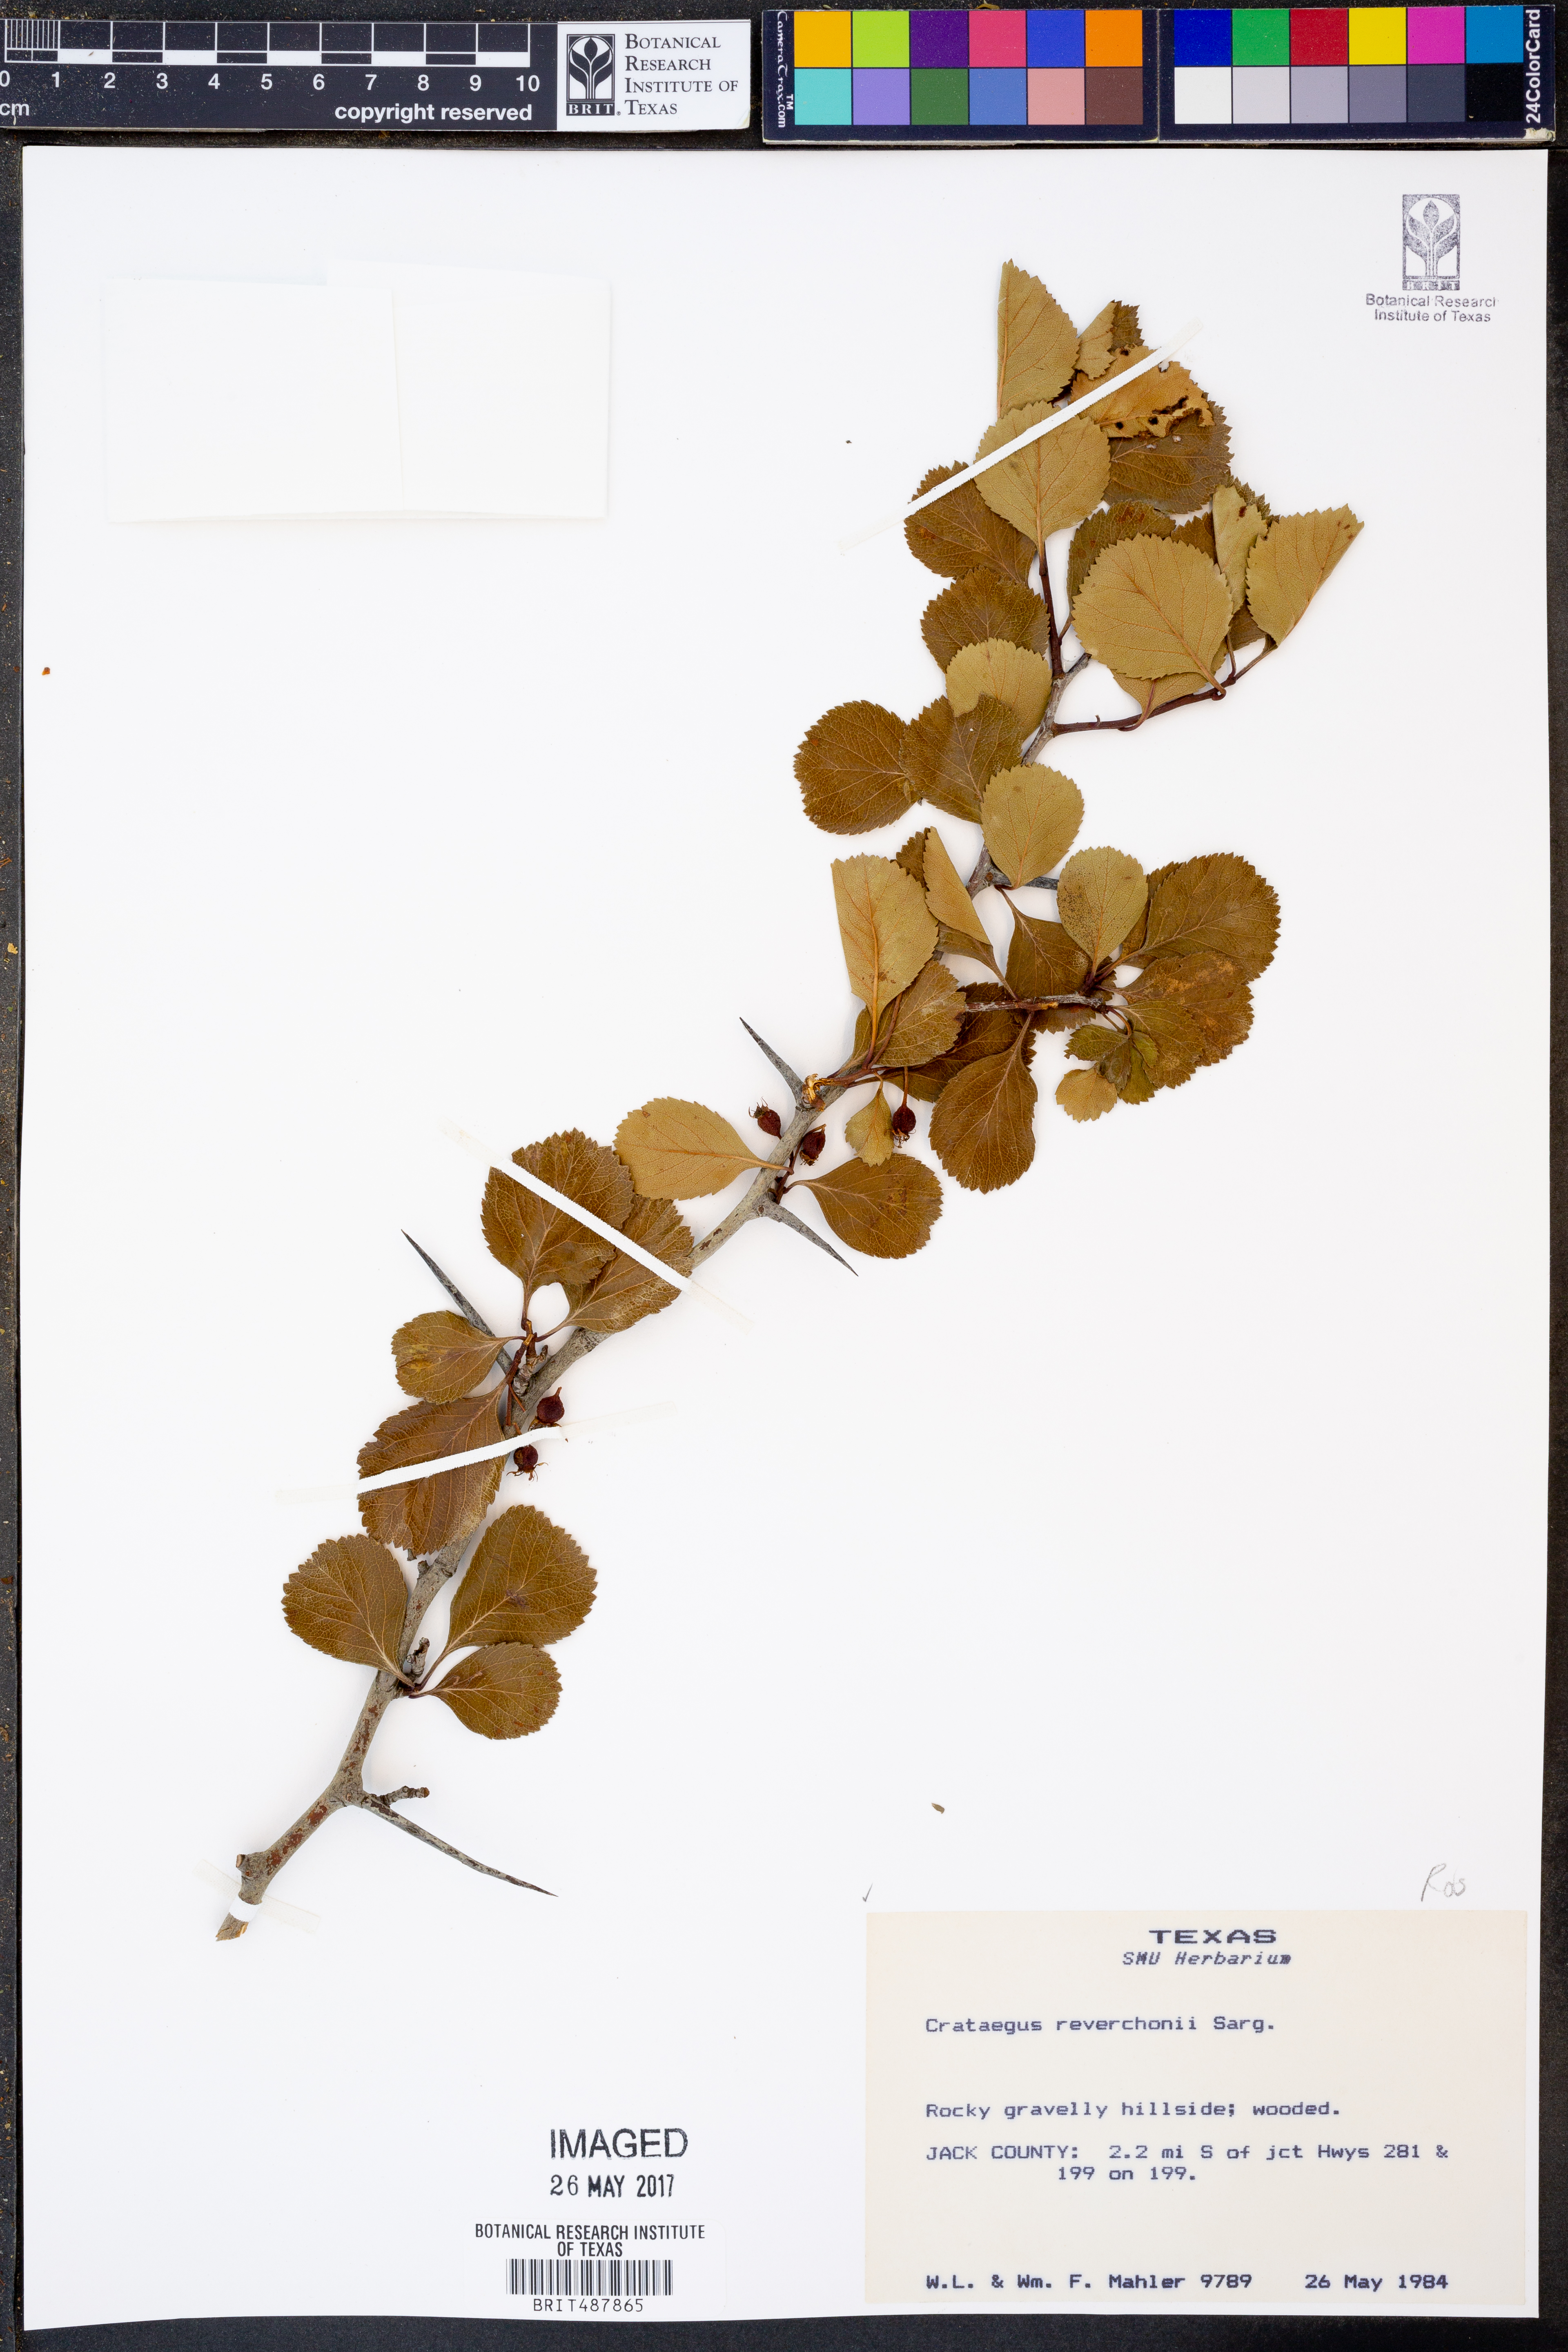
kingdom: Plantae
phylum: Tracheophyta
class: Magnoliopsida
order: Rosales
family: Rosaceae
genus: Crataegus
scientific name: Crataegus reverchonii
